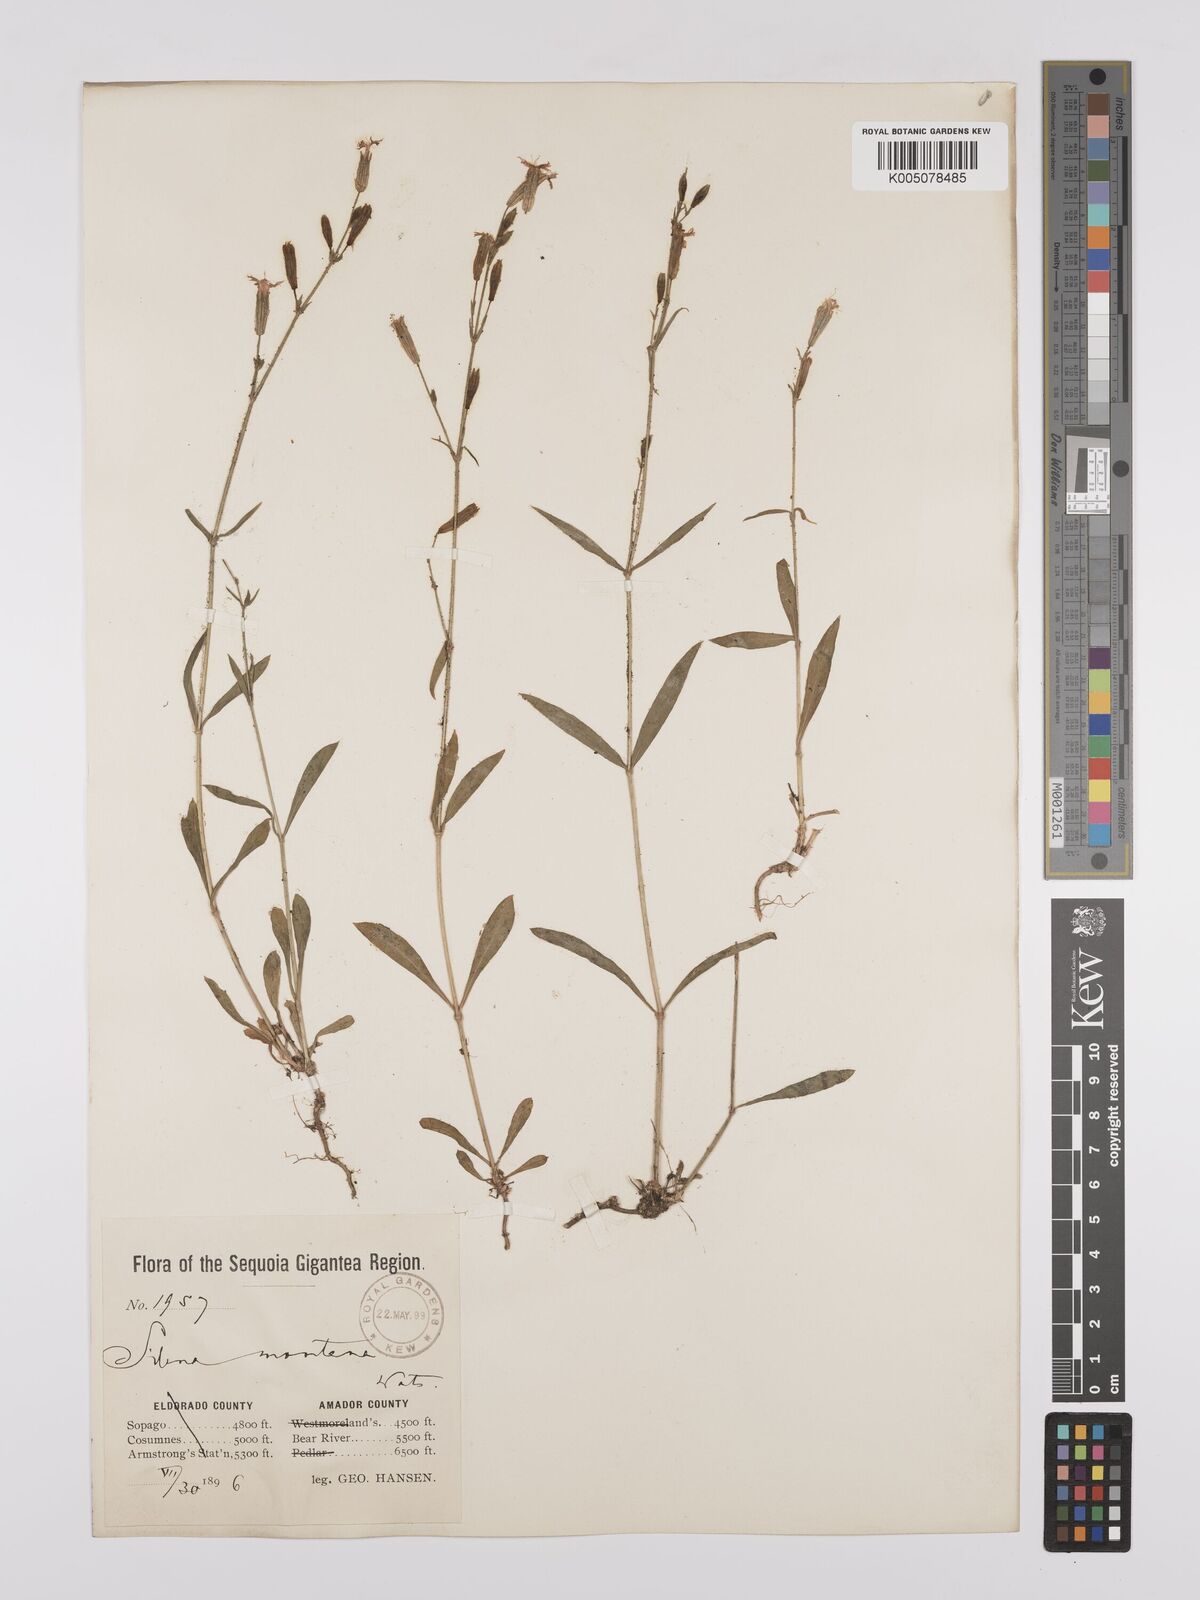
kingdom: Plantae
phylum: Tracheophyta
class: Magnoliopsida
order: Caryophyllales
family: Caryophyllaceae
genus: Silene
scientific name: Silene hitchguirei
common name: Mountain catchfly
